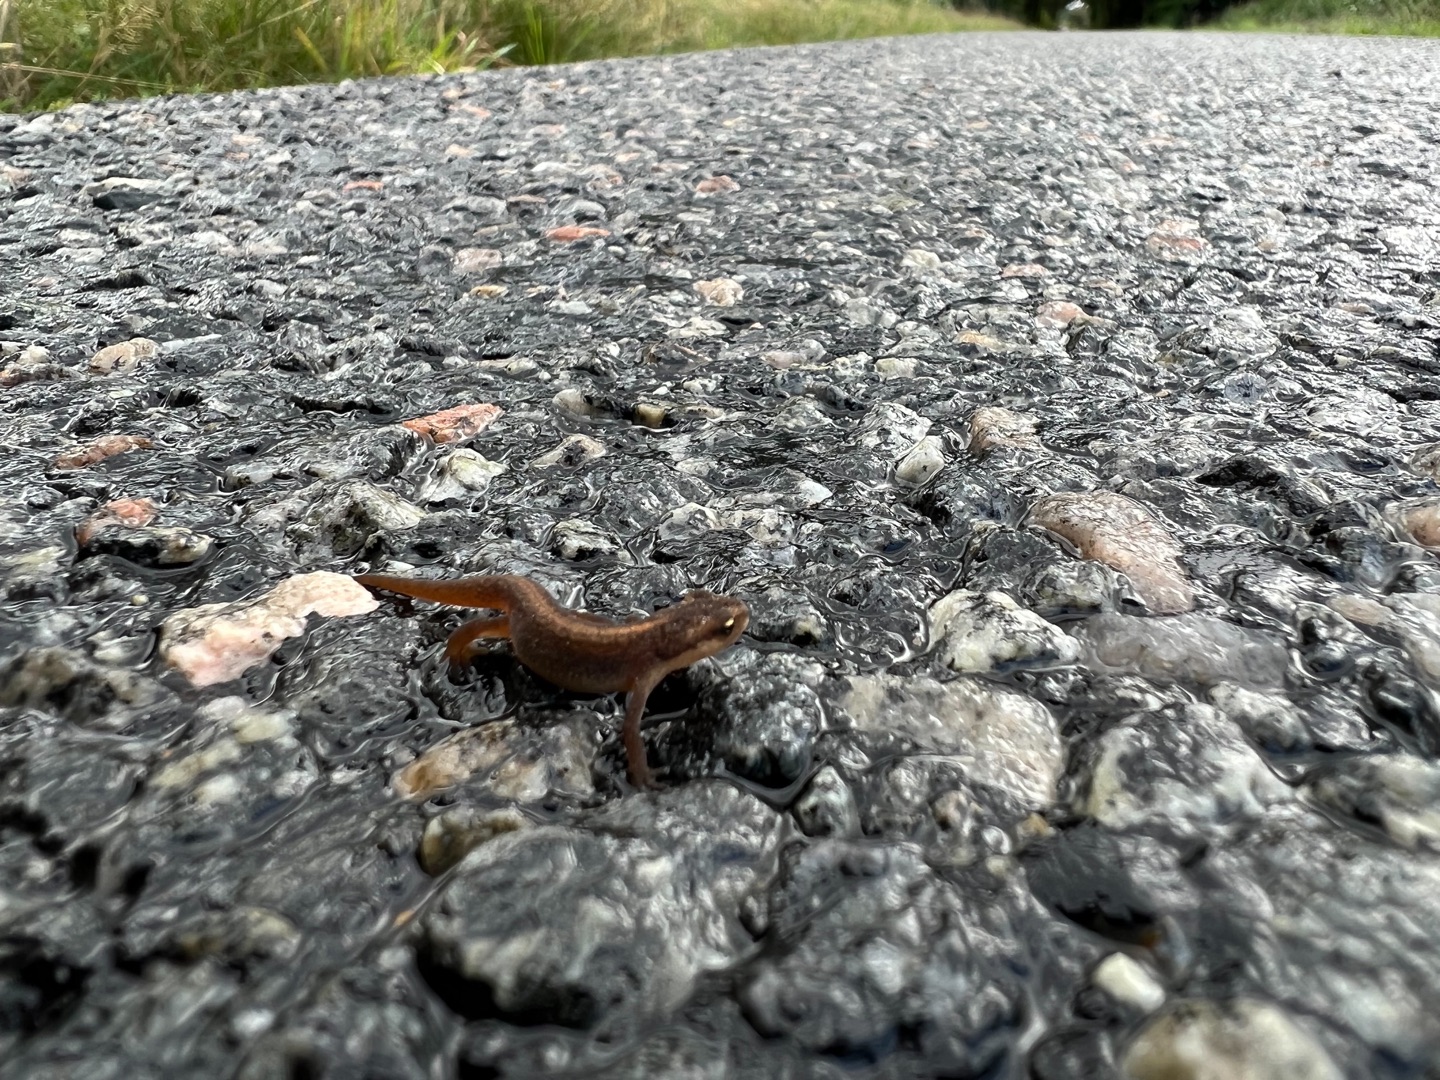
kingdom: Animalia
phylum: Chordata
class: Amphibia
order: Caudata
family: Salamandridae
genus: Lissotriton
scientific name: Lissotriton vulgaris
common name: Lille vandsalamander
